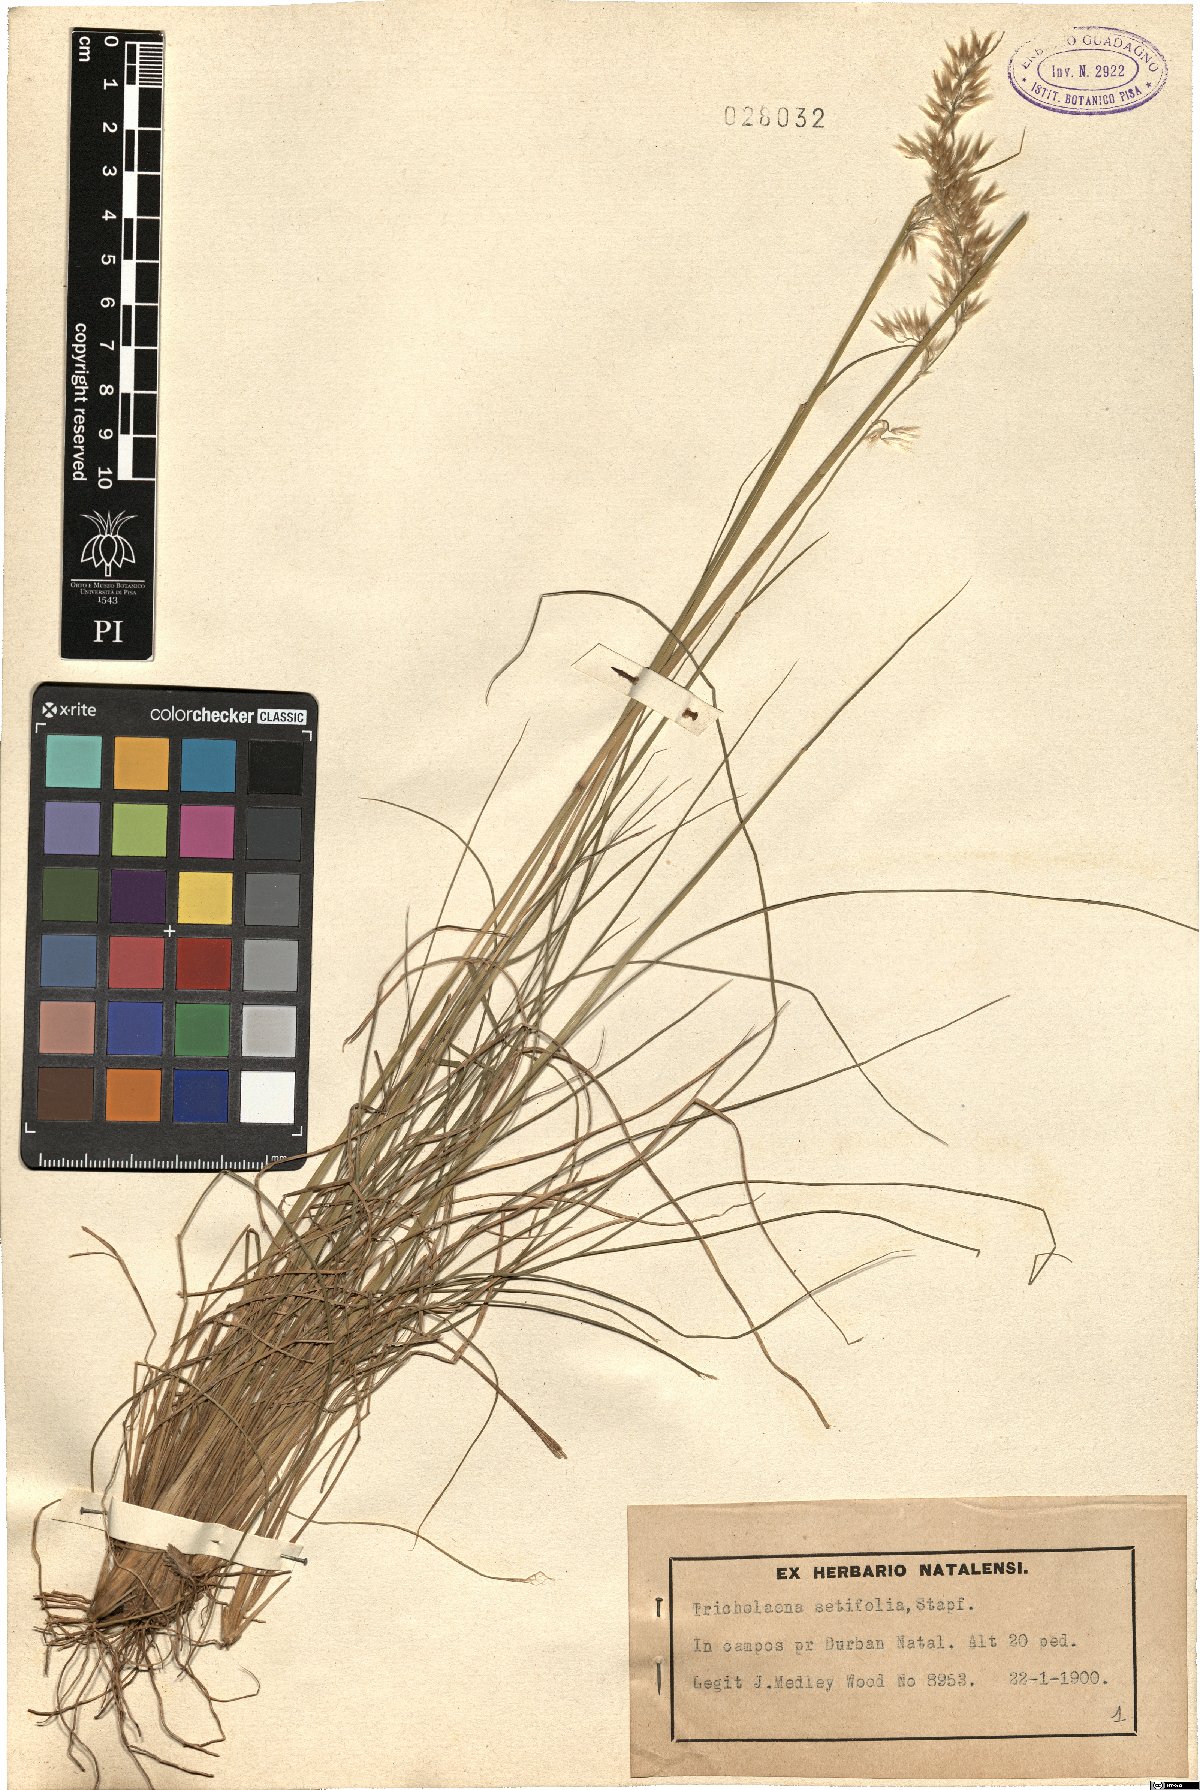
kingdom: Plantae
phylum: Tracheophyta
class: Liliopsida
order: Poales
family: Poaceae
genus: Melinis
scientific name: Melinis nerviglumis
